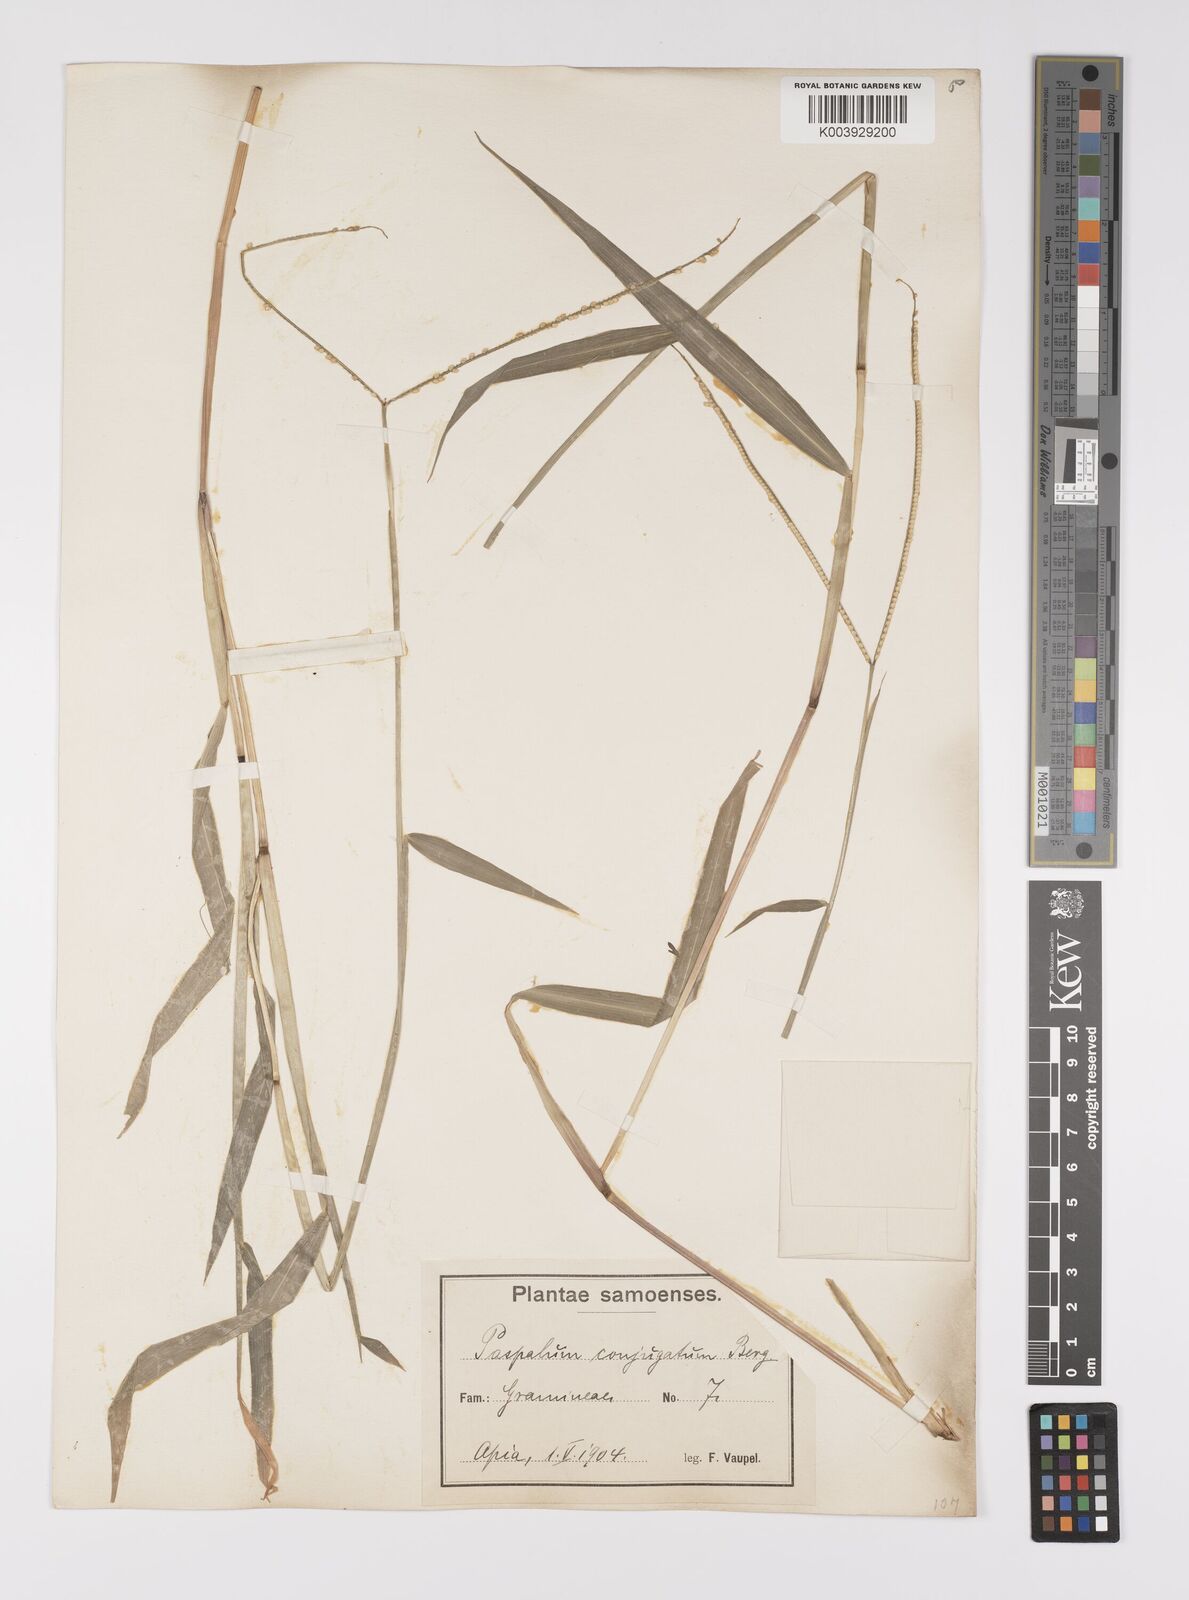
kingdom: Plantae
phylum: Tracheophyta
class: Liliopsida
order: Poales
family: Poaceae
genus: Paspalum
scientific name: Paspalum conjugatum
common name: Hilograss
